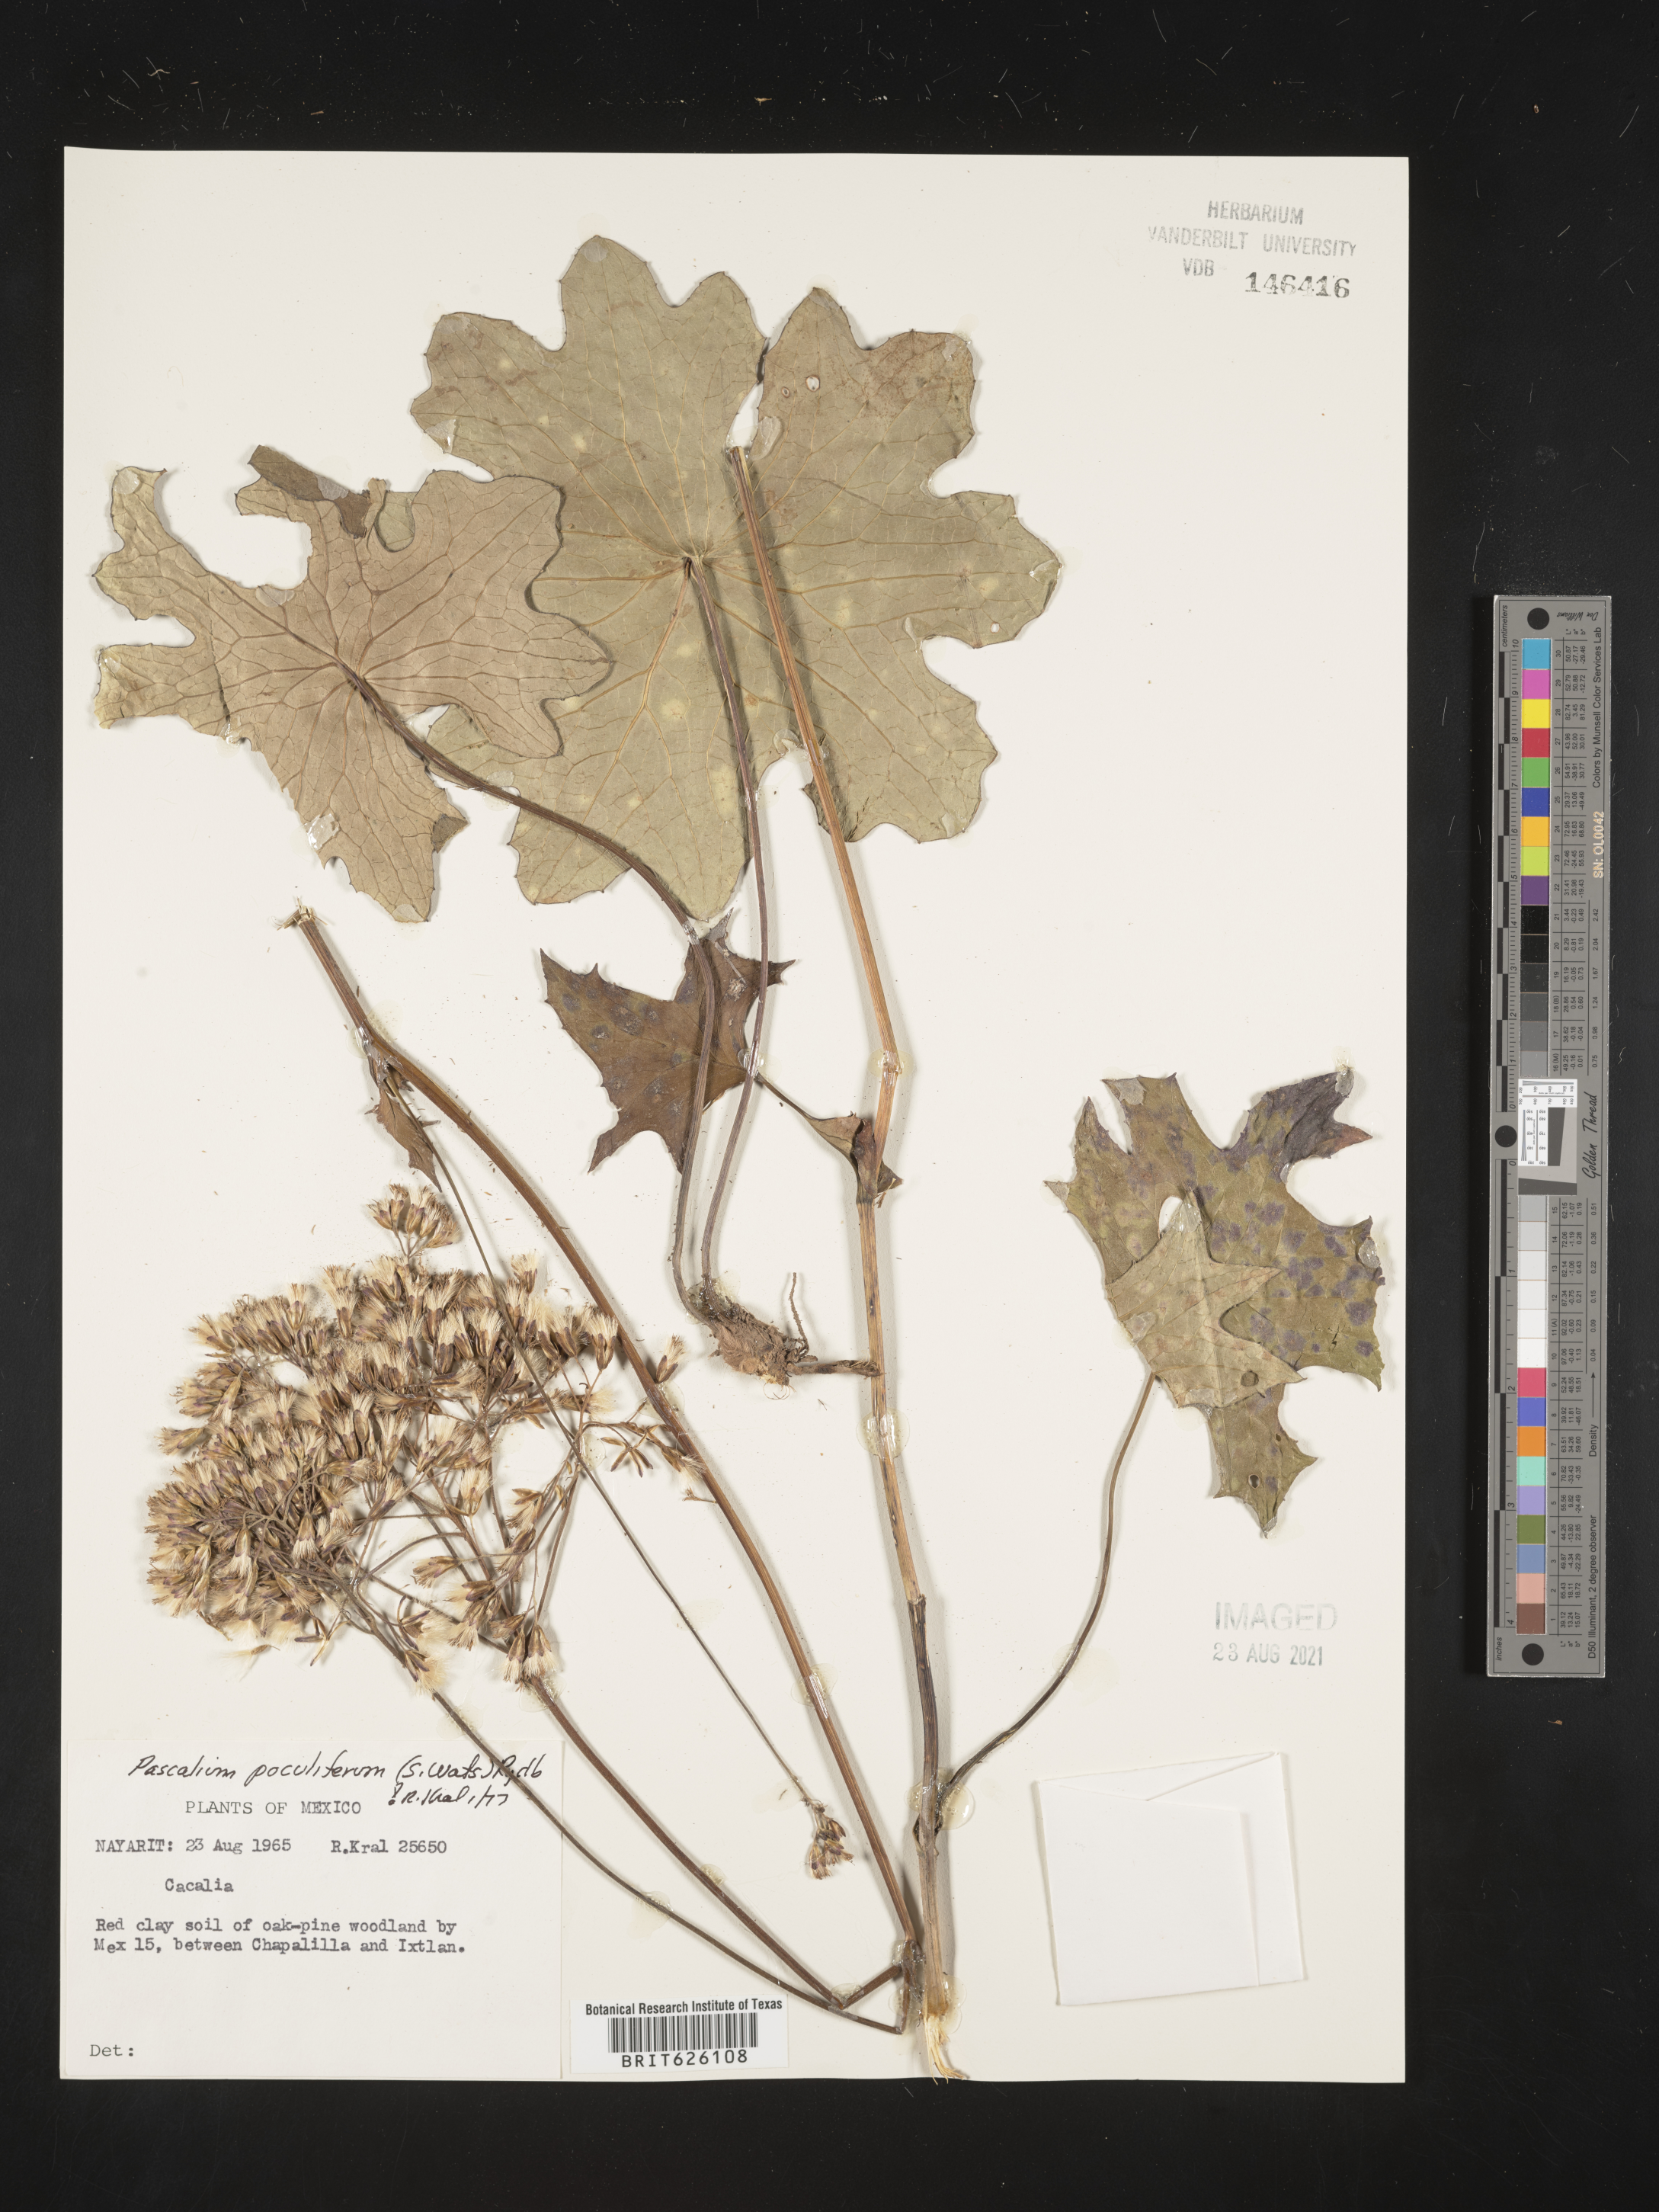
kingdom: Plantae
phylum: Tracheophyta
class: Magnoliopsida
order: Asterales
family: Asteraceae
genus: Pascalia
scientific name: Pascalia
